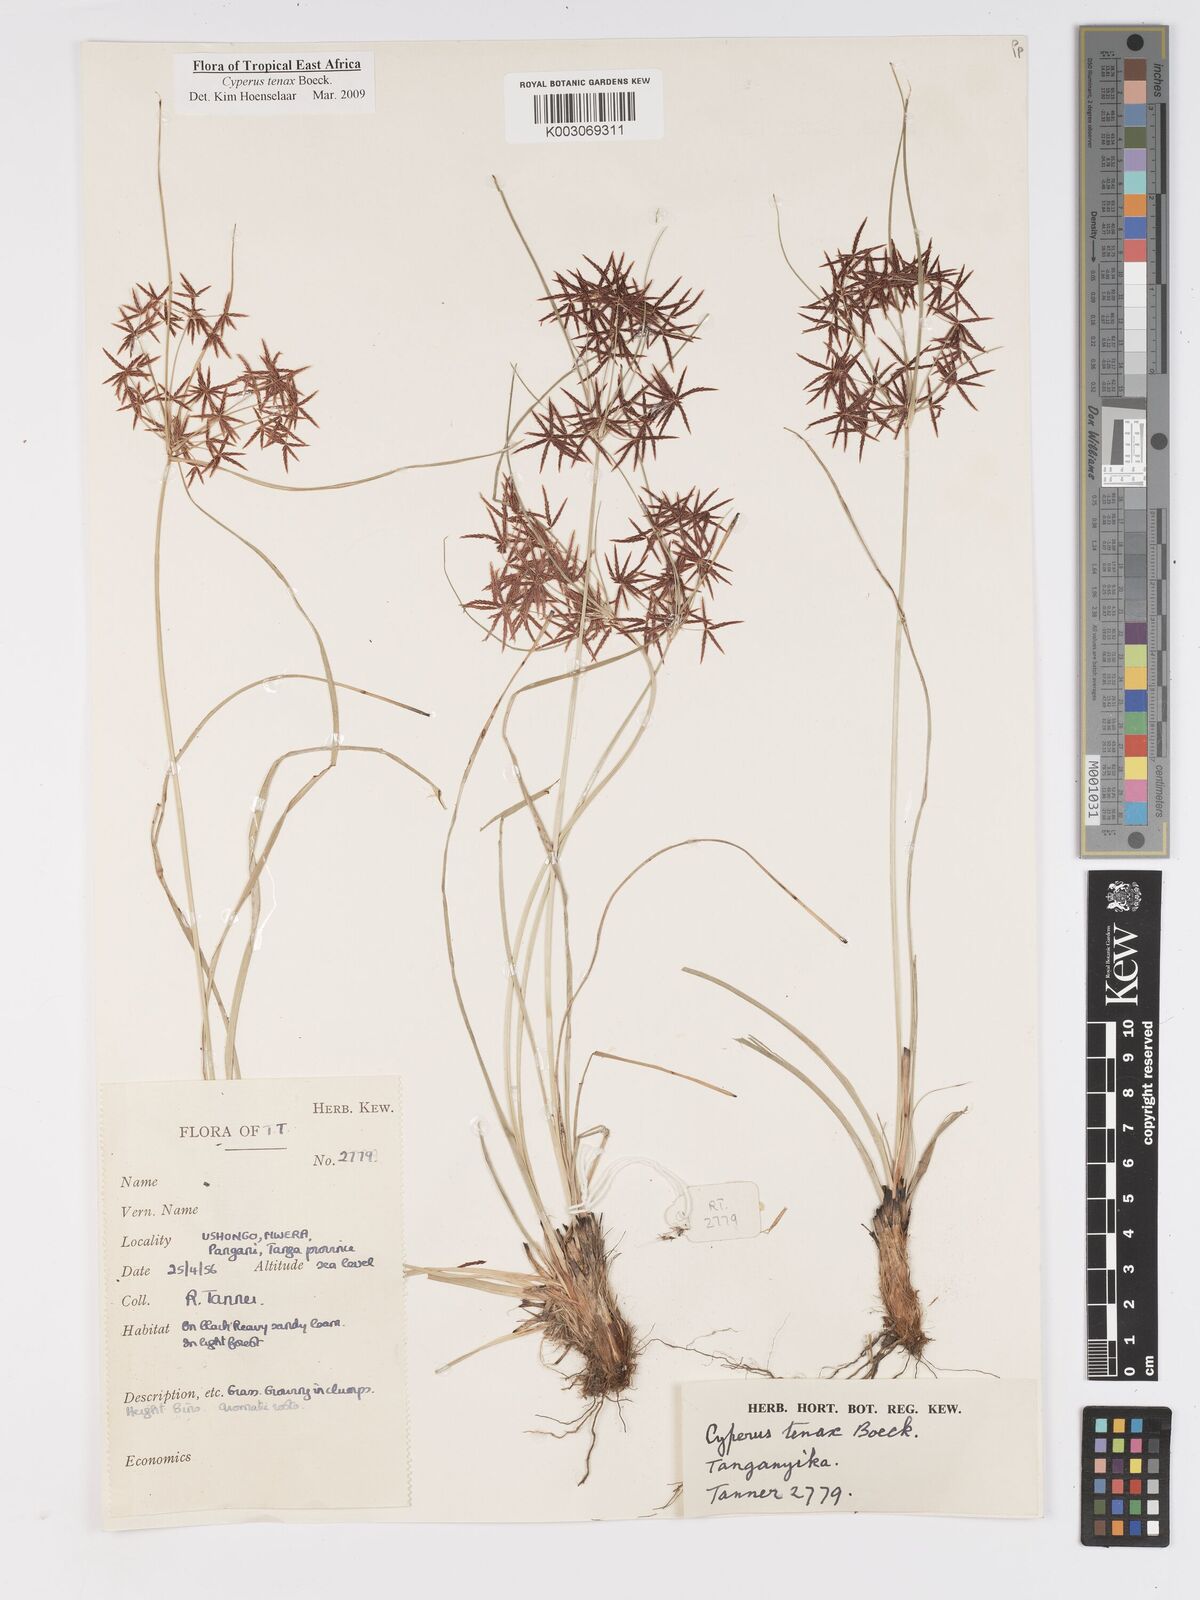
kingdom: Plantae
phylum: Tracheophyta
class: Liliopsida
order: Poales
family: Cyperaceae
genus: Cyperus
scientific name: Cyperus tenax
